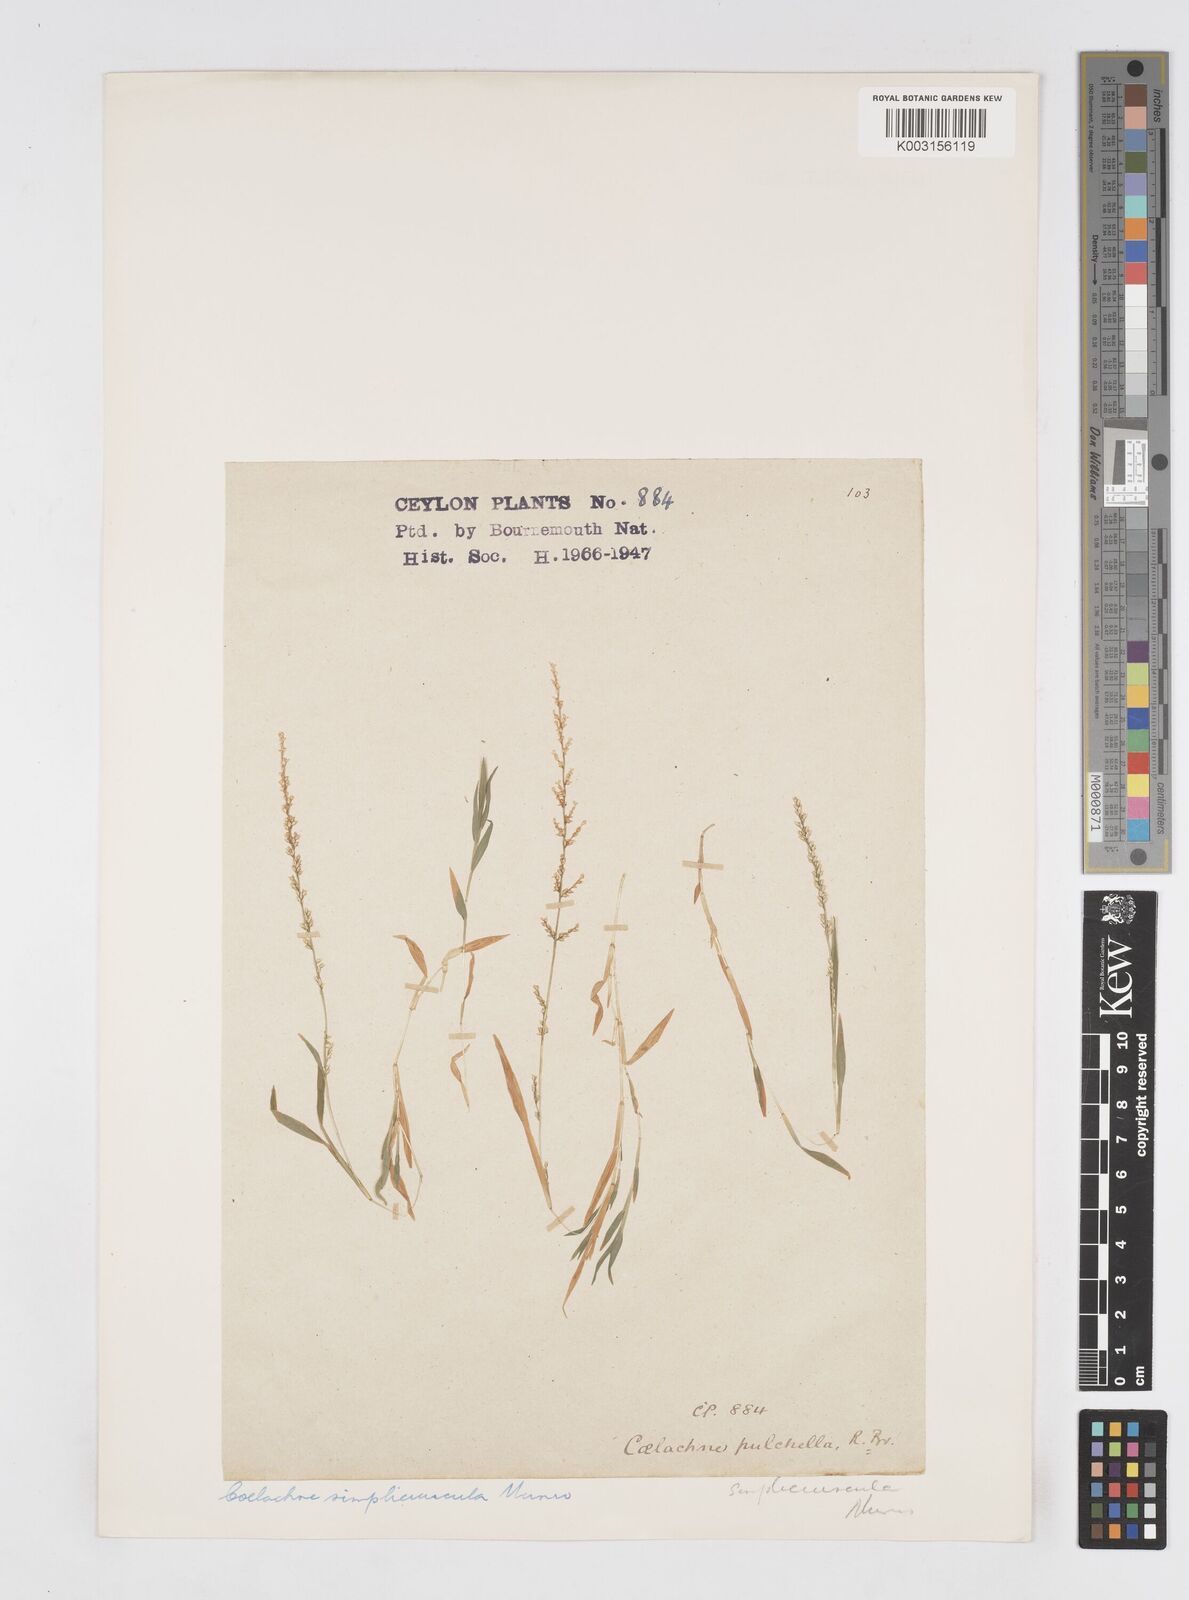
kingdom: Plantae
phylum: Tracheophyta
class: Liliopsida
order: Poales
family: Poaceae
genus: Coelachne
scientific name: Coelachne simpliciuscula
